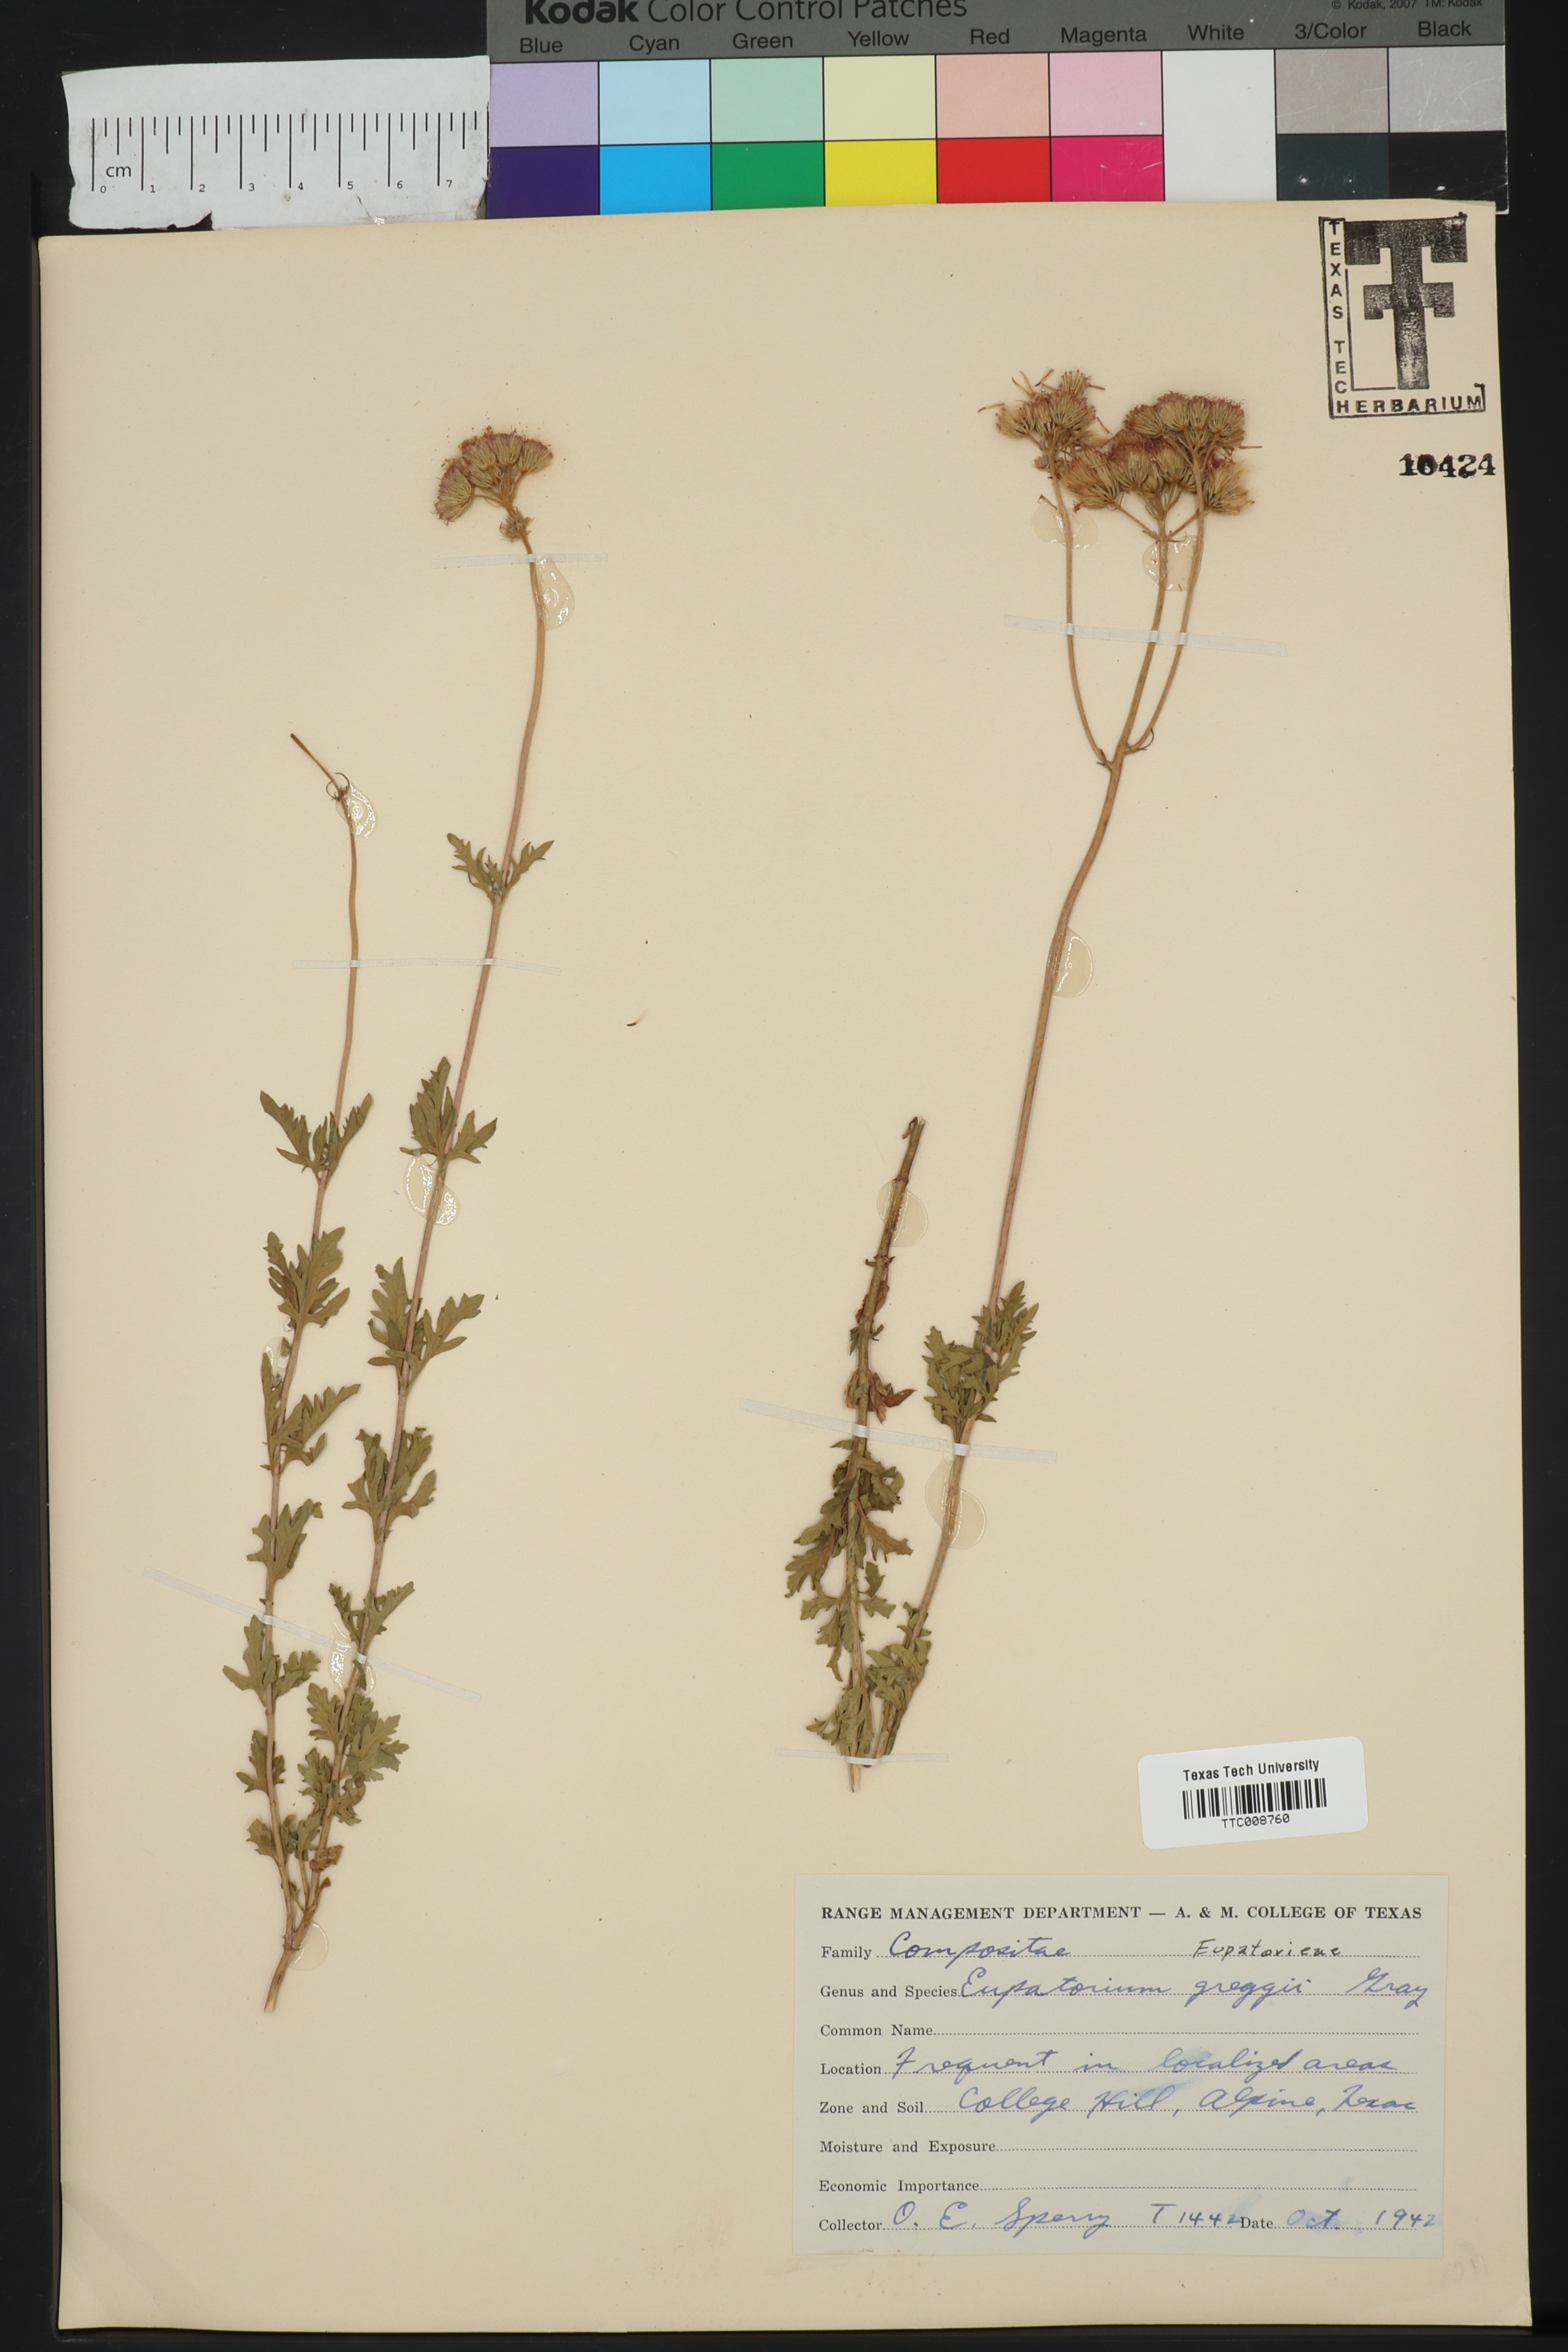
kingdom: Plantae
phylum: Tracheophyta
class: Magnoliopsida
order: Asterales
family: Asteraceae
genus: Conoclinium
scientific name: Conoclinium dissectum
